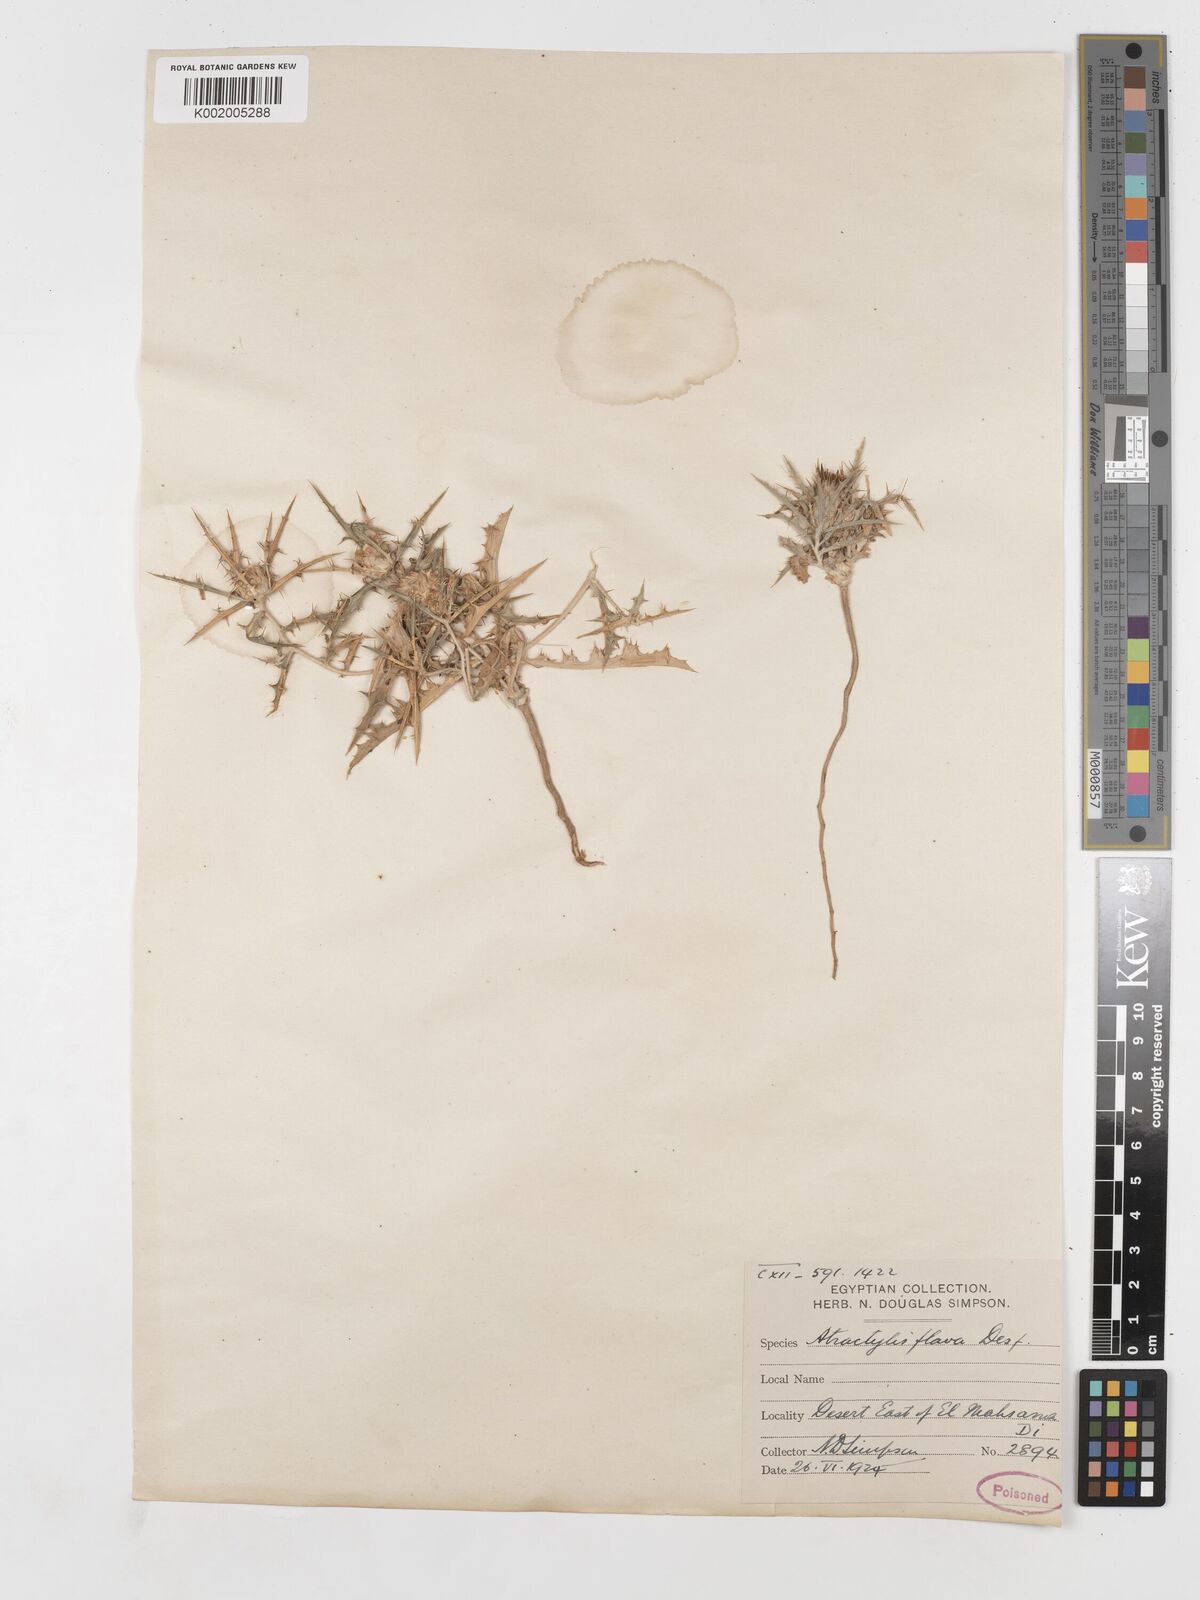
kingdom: Plantae
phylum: Tracheophyta
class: Magnoliopsida
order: Asterales
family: Asteraceae
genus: Atractylis
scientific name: Atractylis carduus
